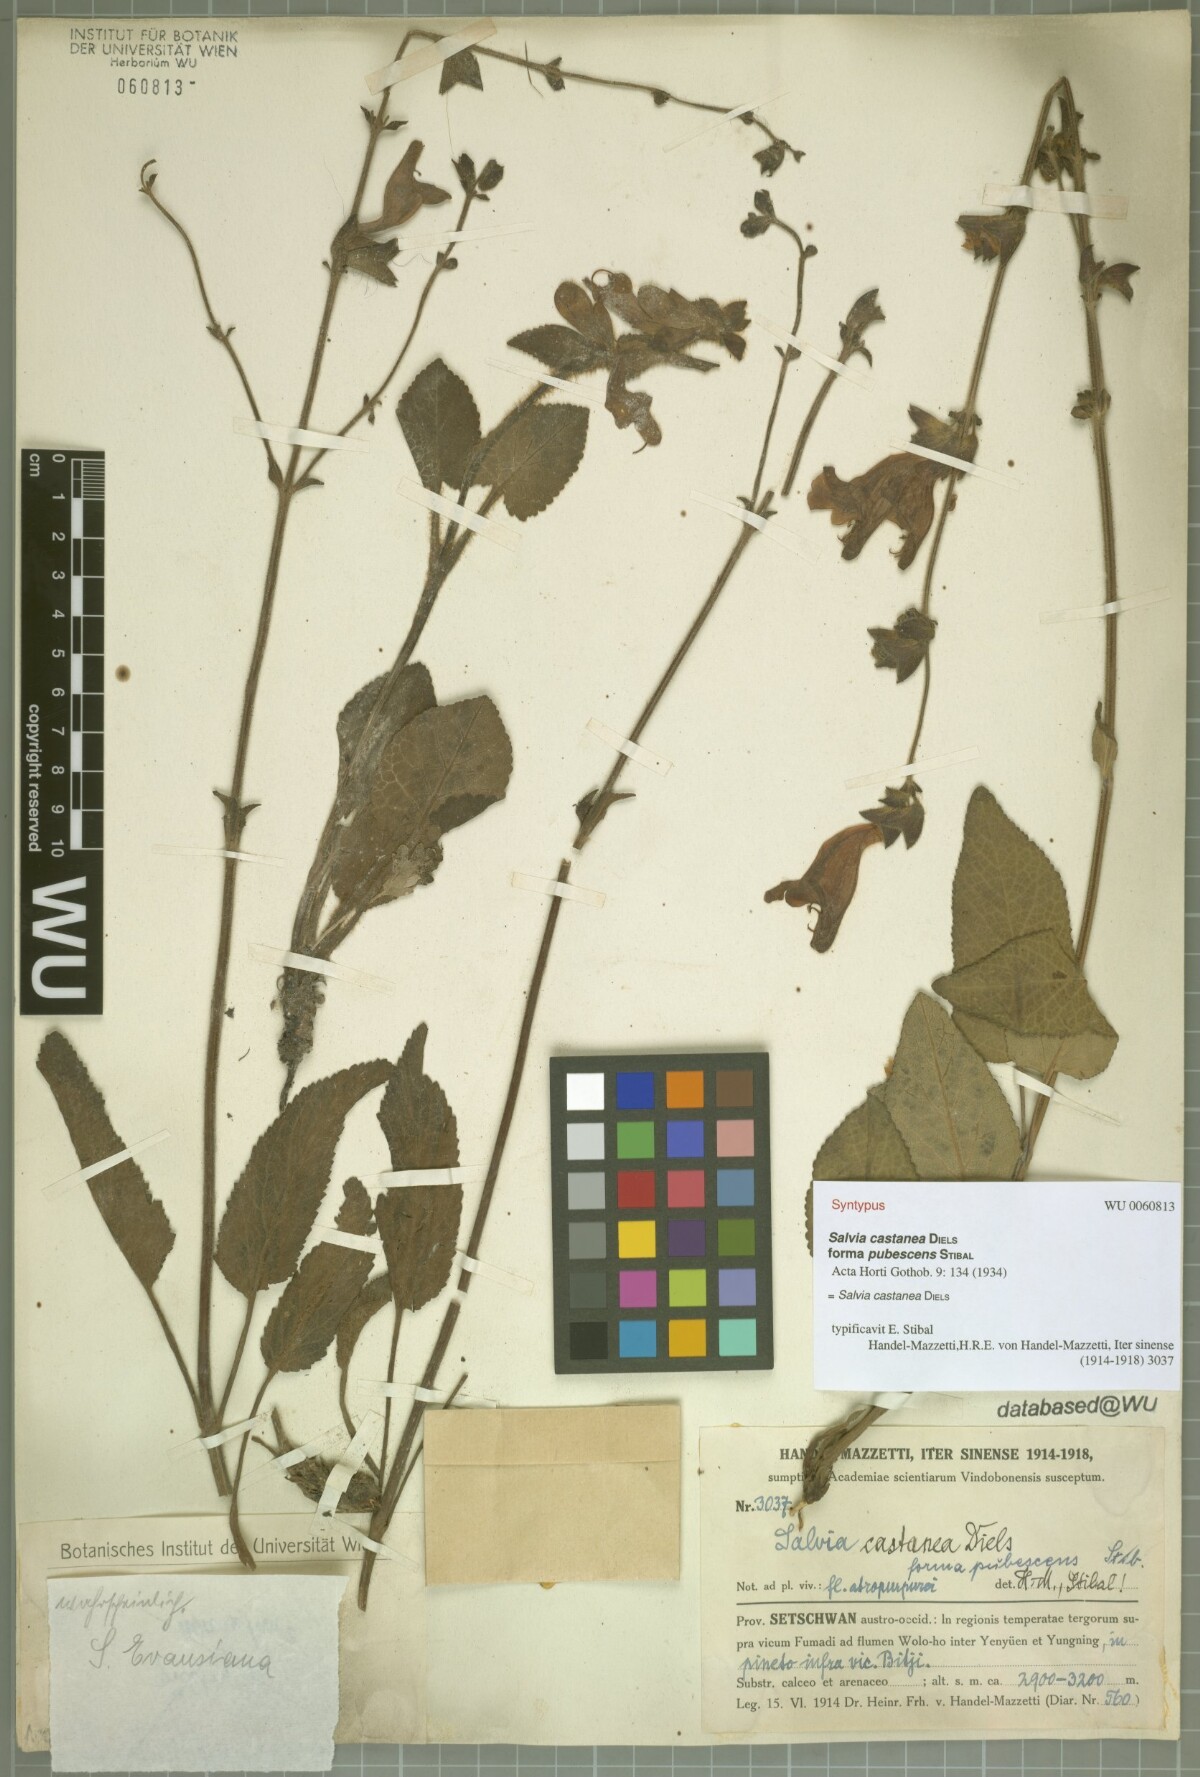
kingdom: Plantae
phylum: Tracheophyta
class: Magnoliopsida
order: Lamiales
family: Lamiaceae
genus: Salvia
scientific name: Salvia castanea
